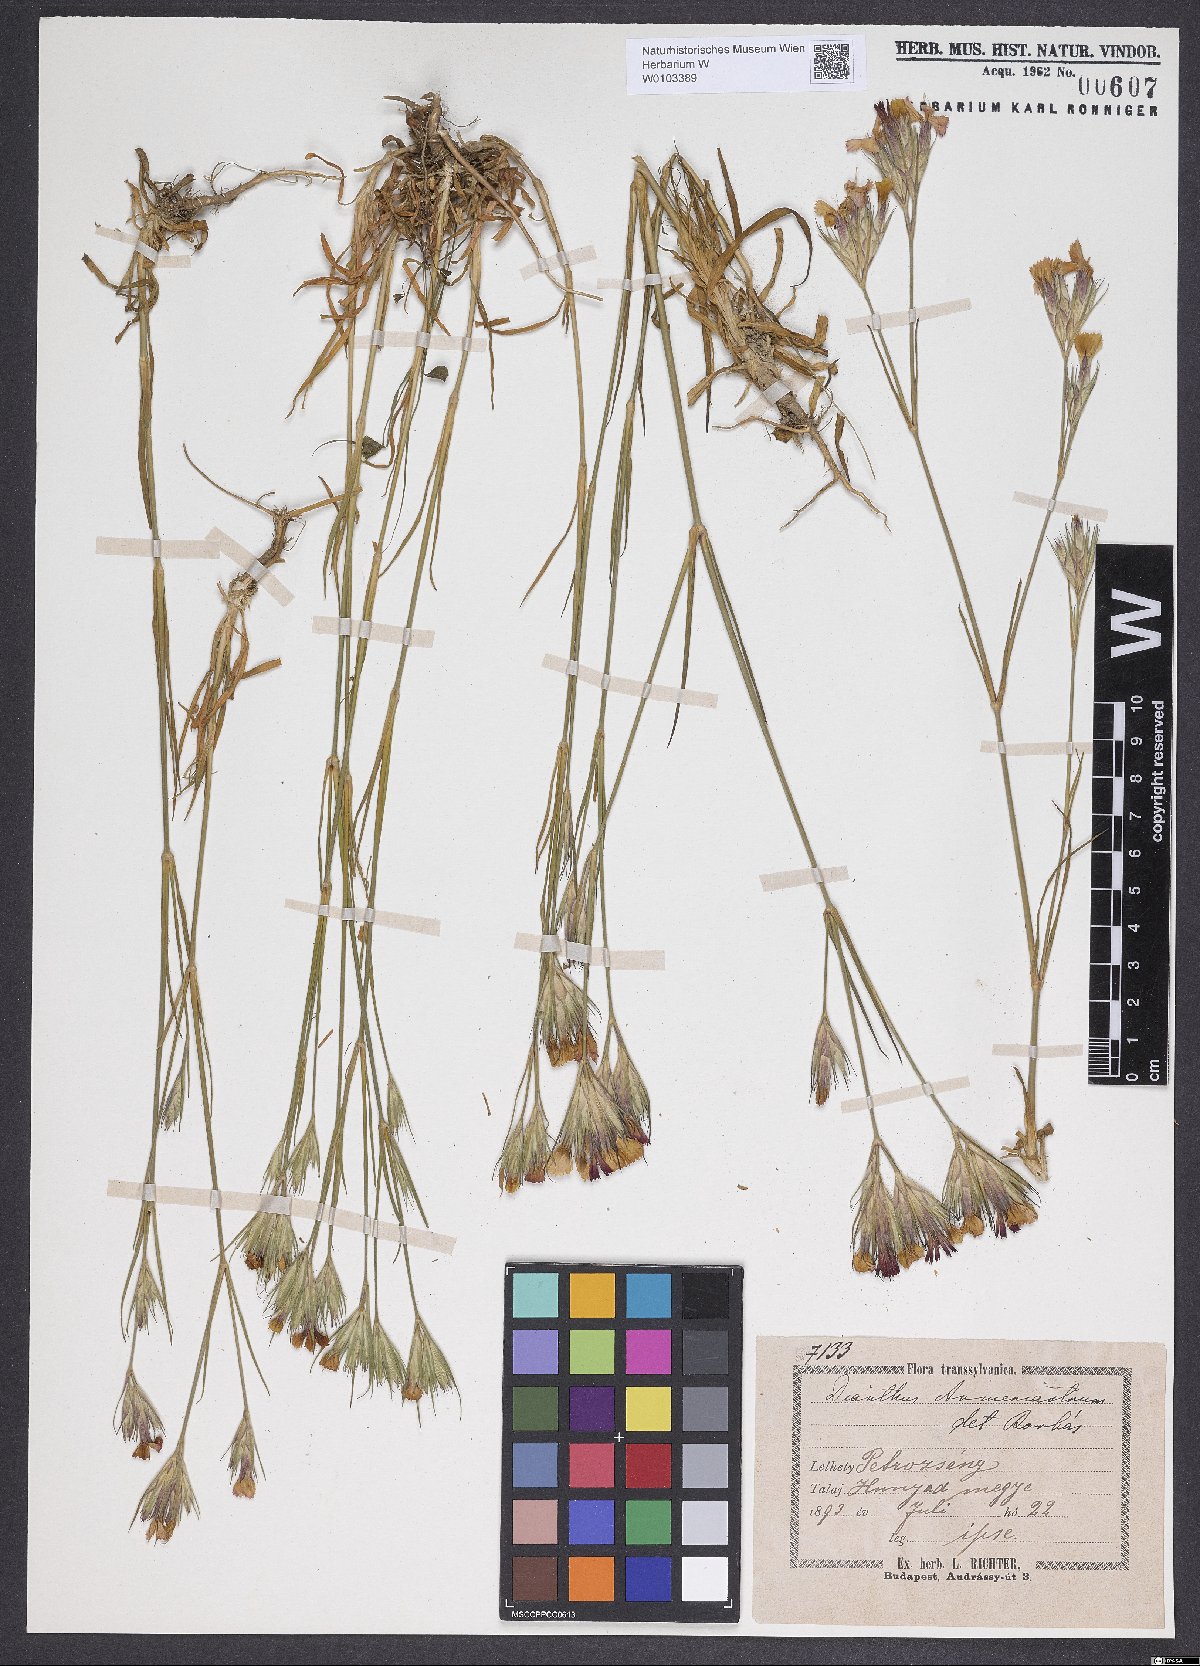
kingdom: Plantae
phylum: Tracheophyta
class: Magnoliopsida
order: Caryophyllales
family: Caryophyllaceae
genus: Dianthus
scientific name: Dianthus corymbosus
